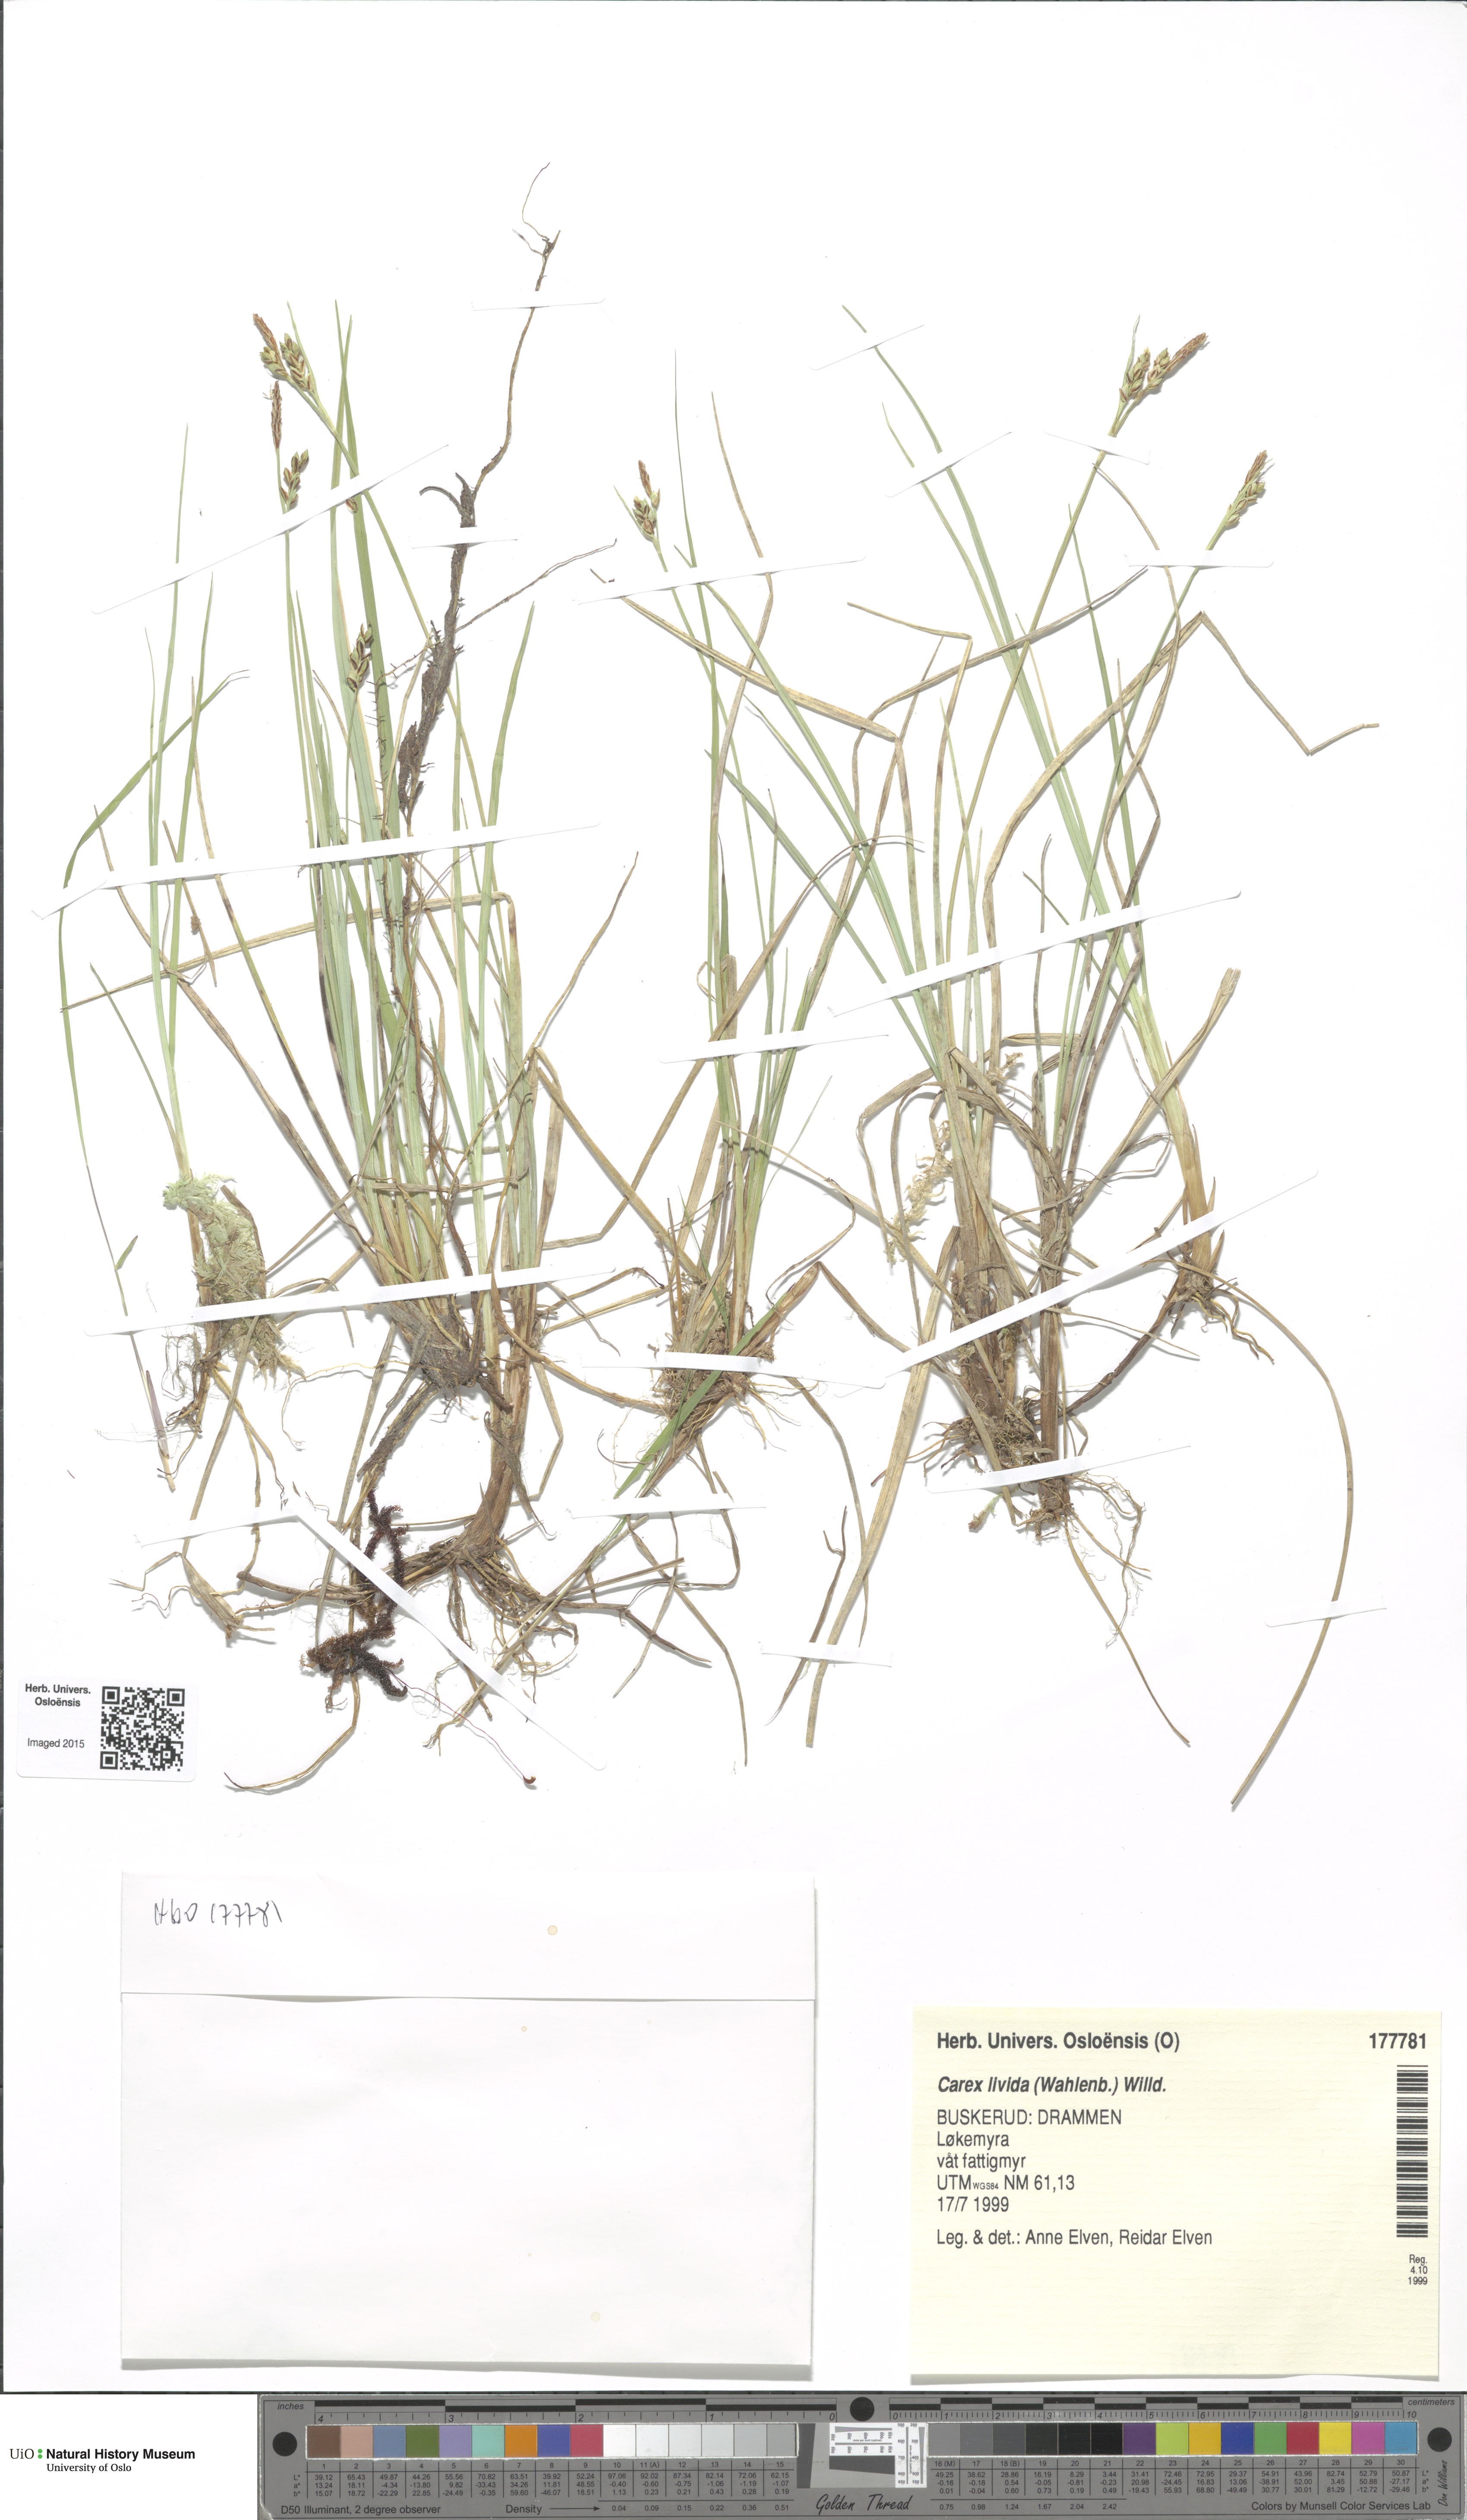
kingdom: Plantae
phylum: Tracheophyta
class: Liliopsida
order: Poales
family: Cyperaceae
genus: Carex
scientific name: Carex livida
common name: Livid sedge
